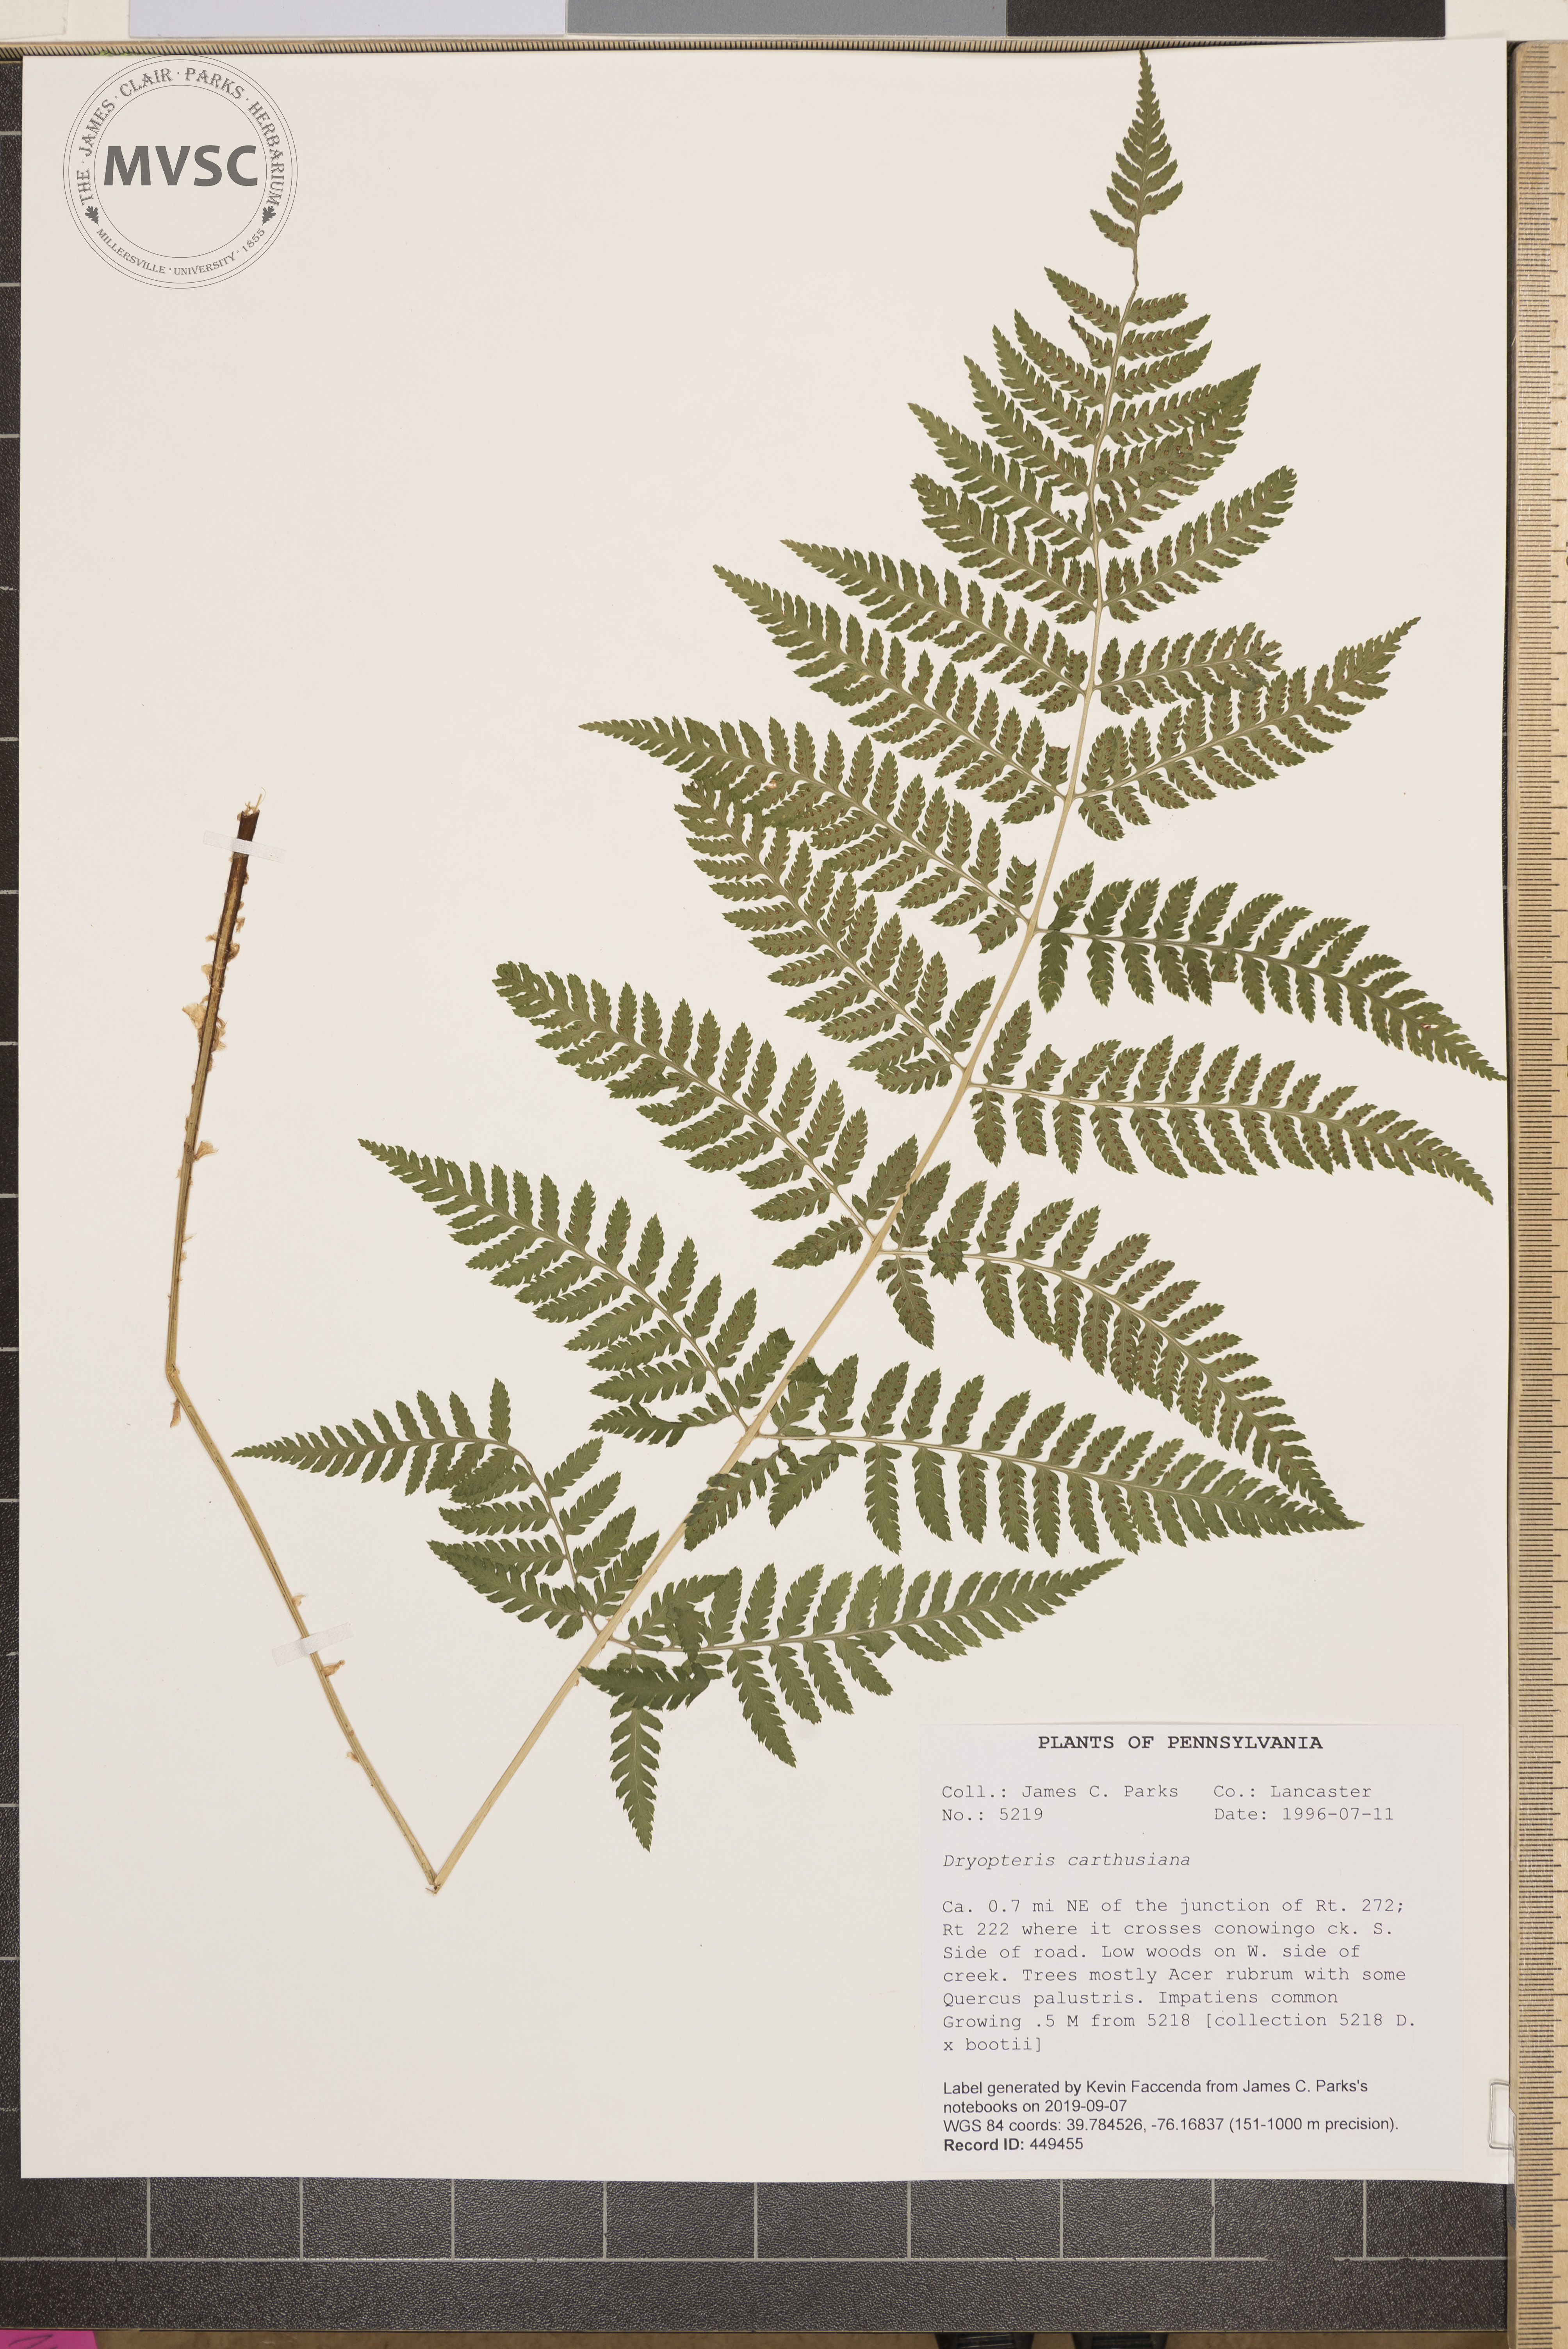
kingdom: Plantae
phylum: Tracheophyta
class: Polypodiopsida
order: Polypodiales
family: Dryopteridaceae
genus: Dryopteris
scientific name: Dryopteris carthusiana
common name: Narrow buckler-fern
